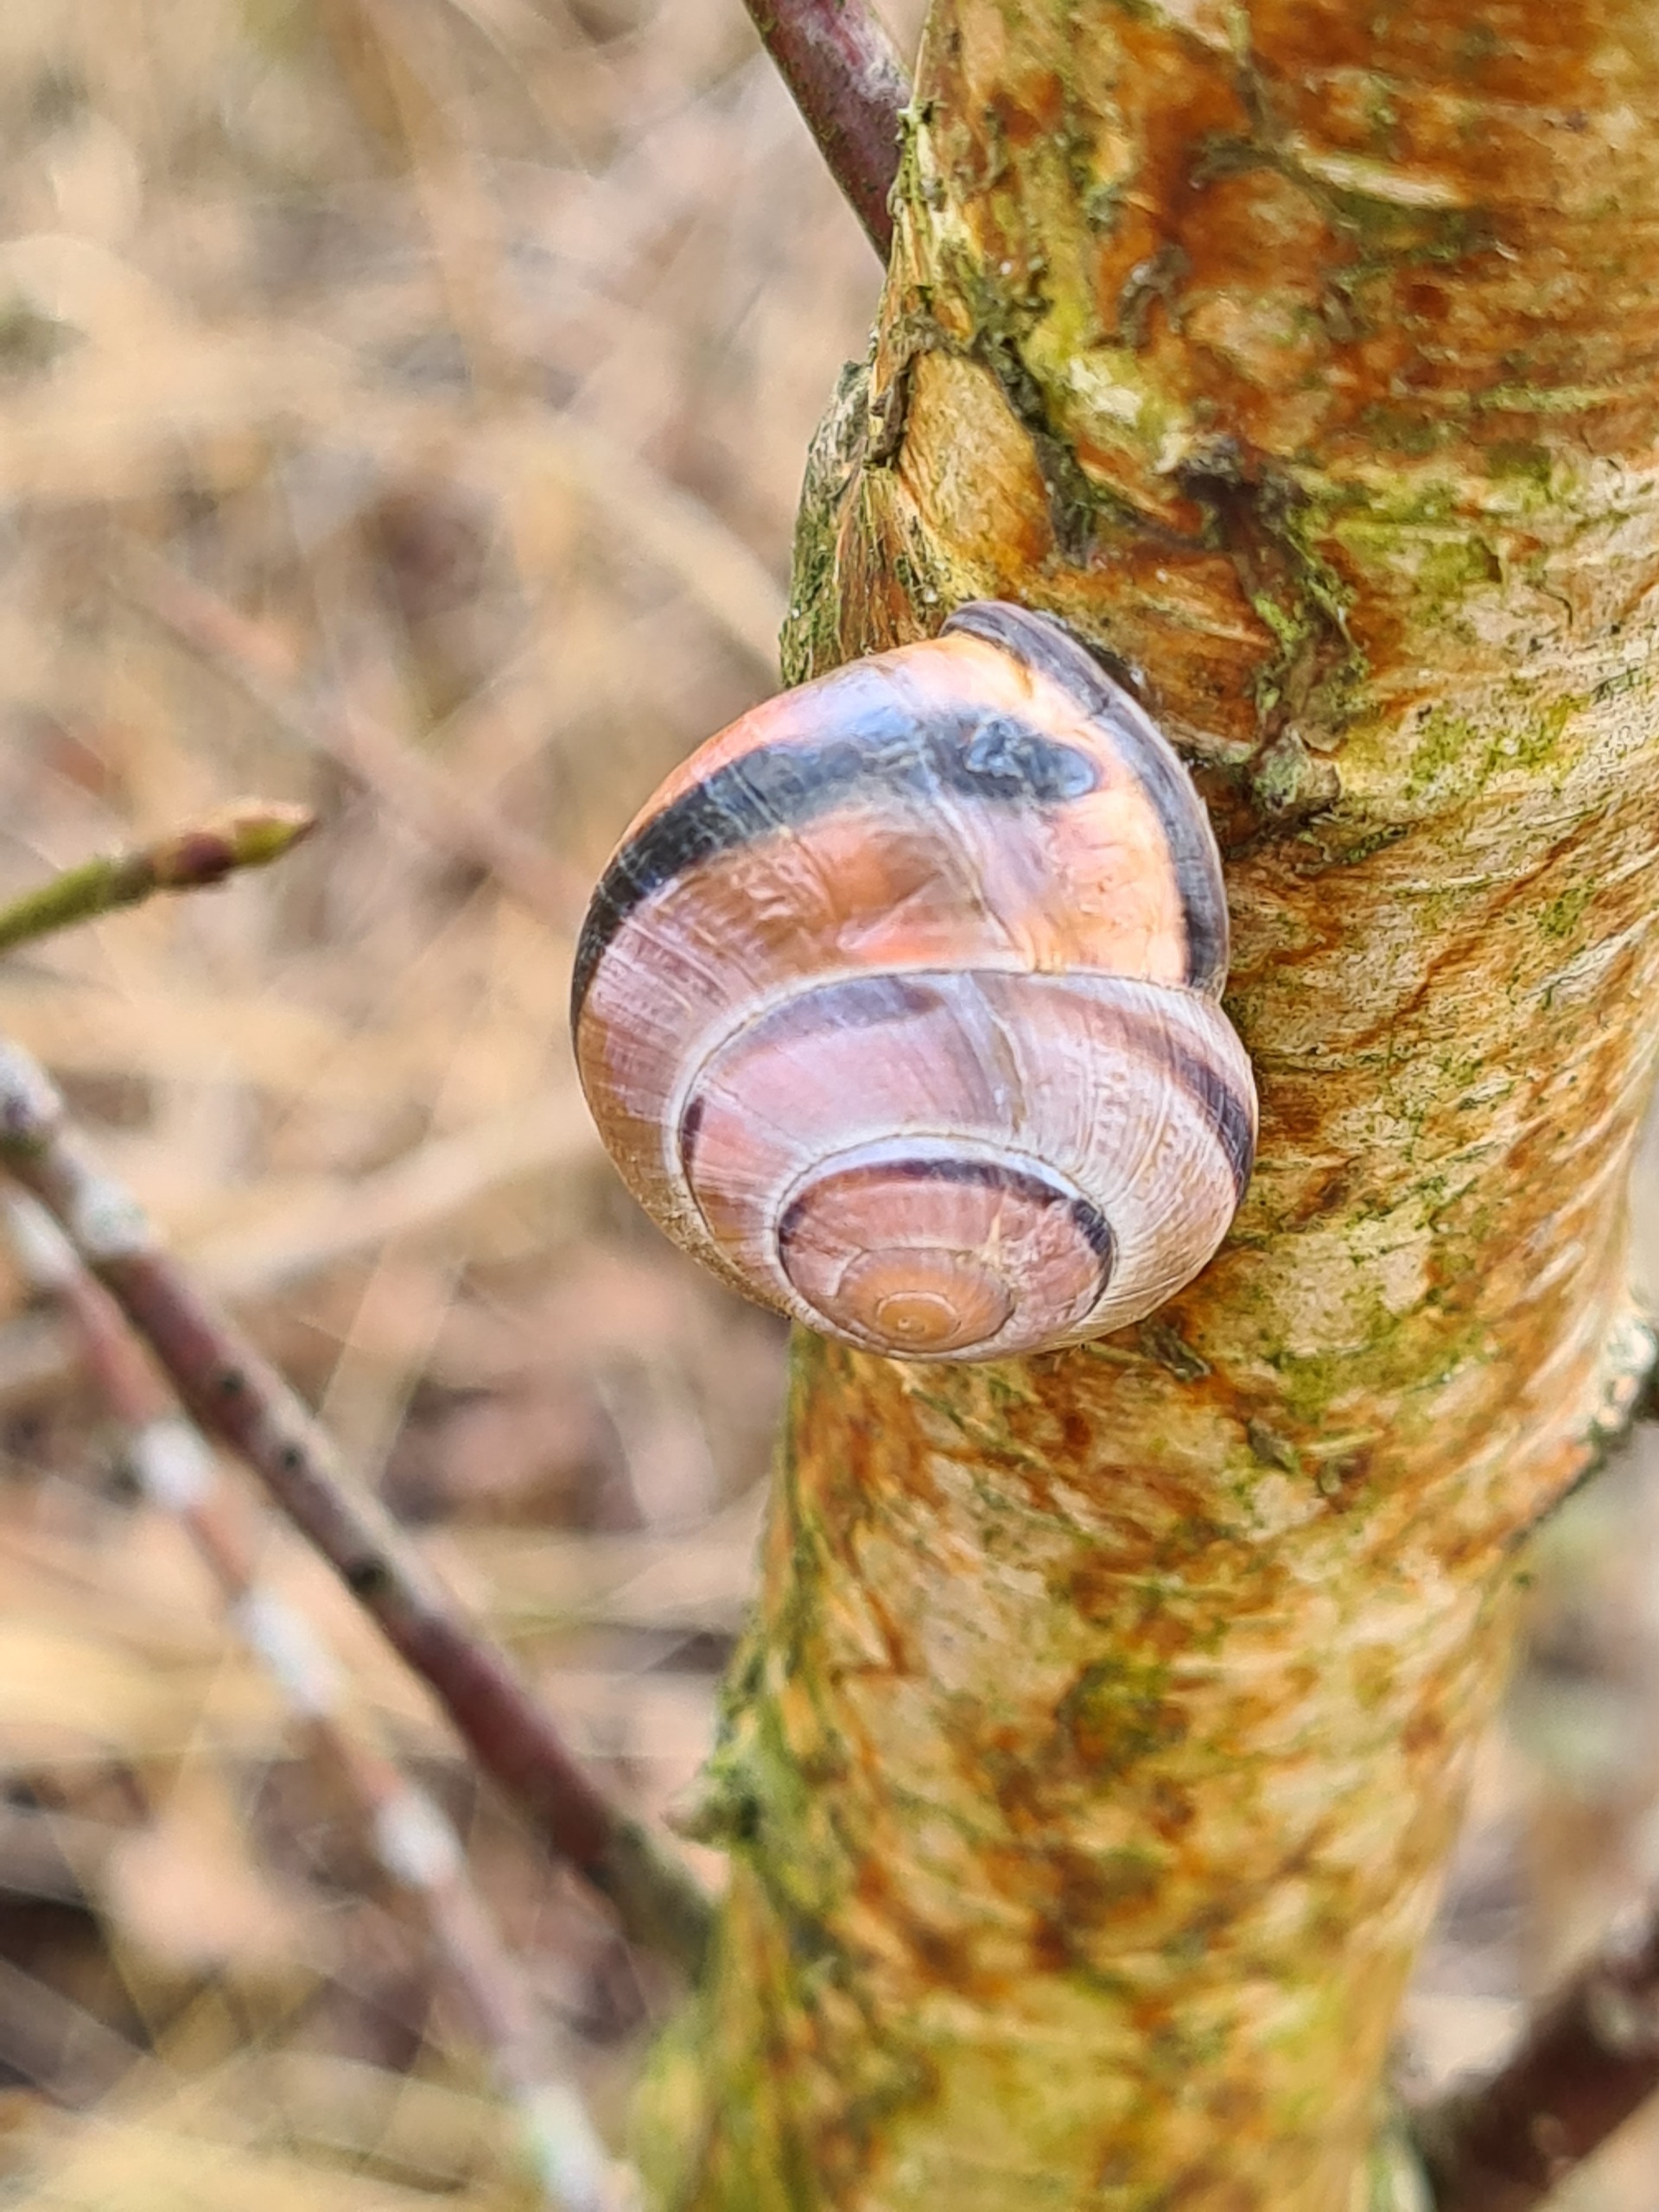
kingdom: Animalia
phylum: Mollusca
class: Gastropoda
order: Stylommatophora
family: Helicidae
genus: Cepaea
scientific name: Cepaea nemoralis
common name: Lundsnegl
